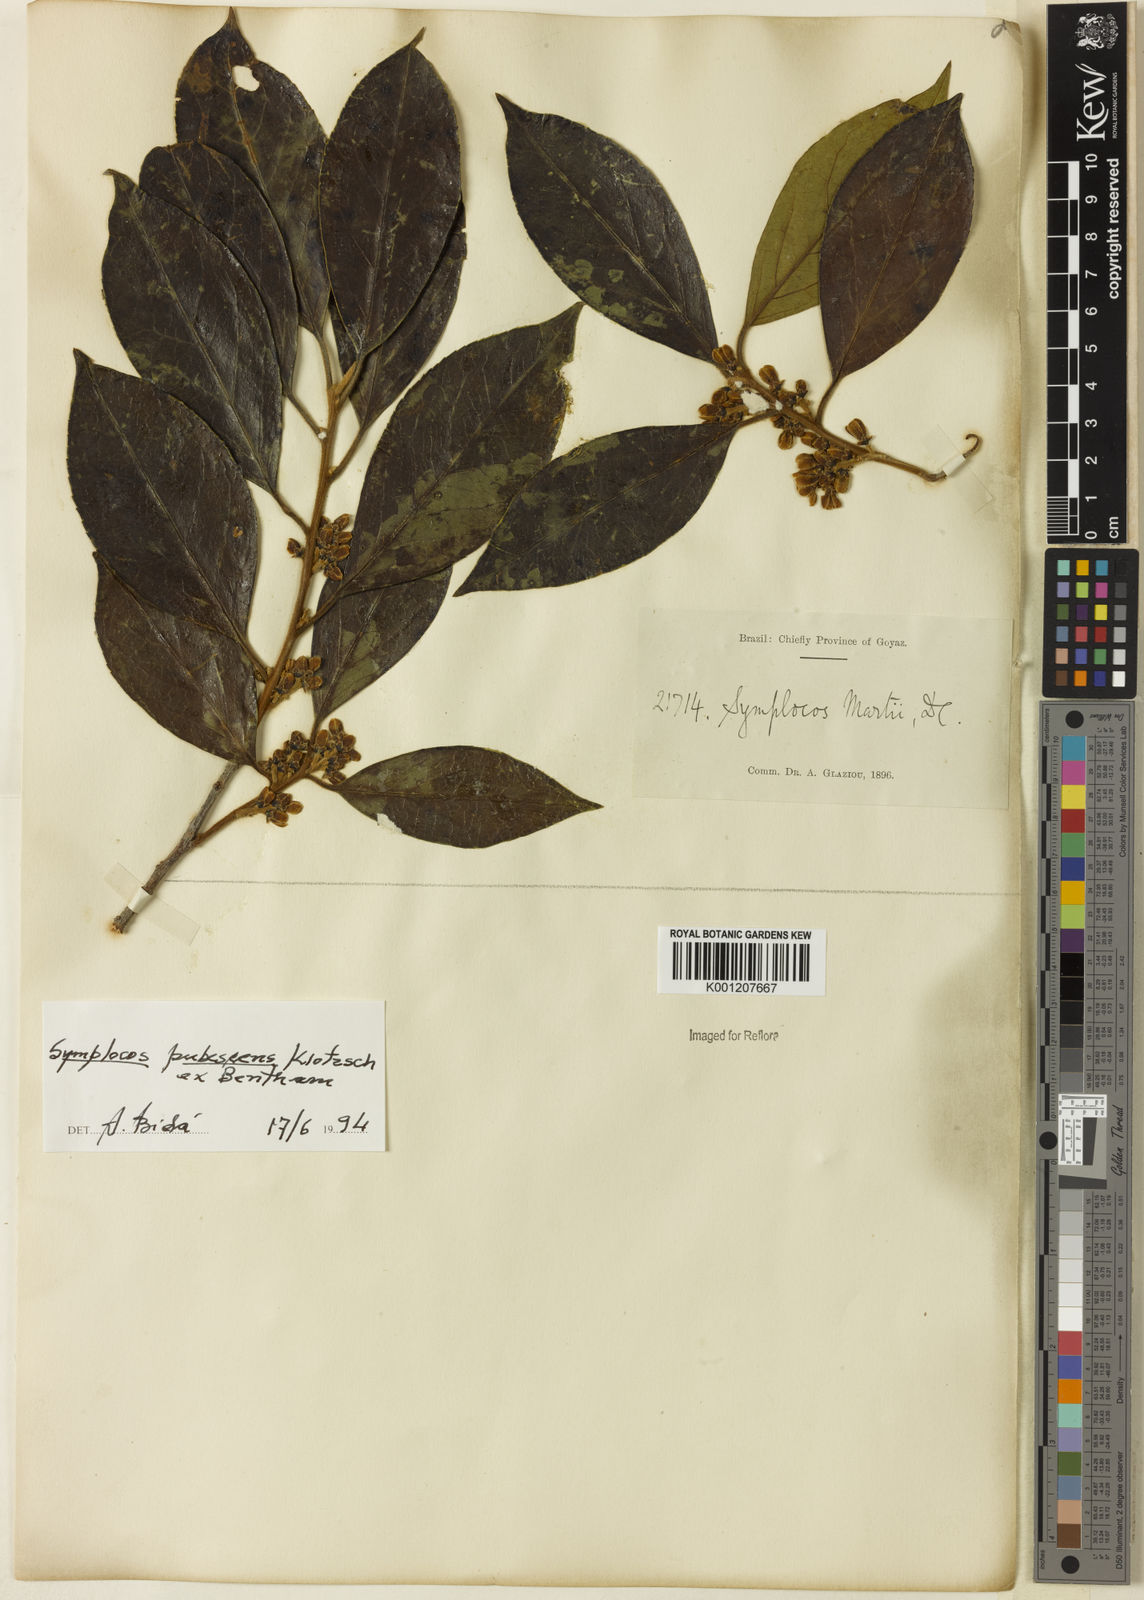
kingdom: Plantae
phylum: Tracheophyta
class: Magnoliopsida
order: Ericales
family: Symplocaceae
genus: Symplocos
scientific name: Symplocos pubescens
